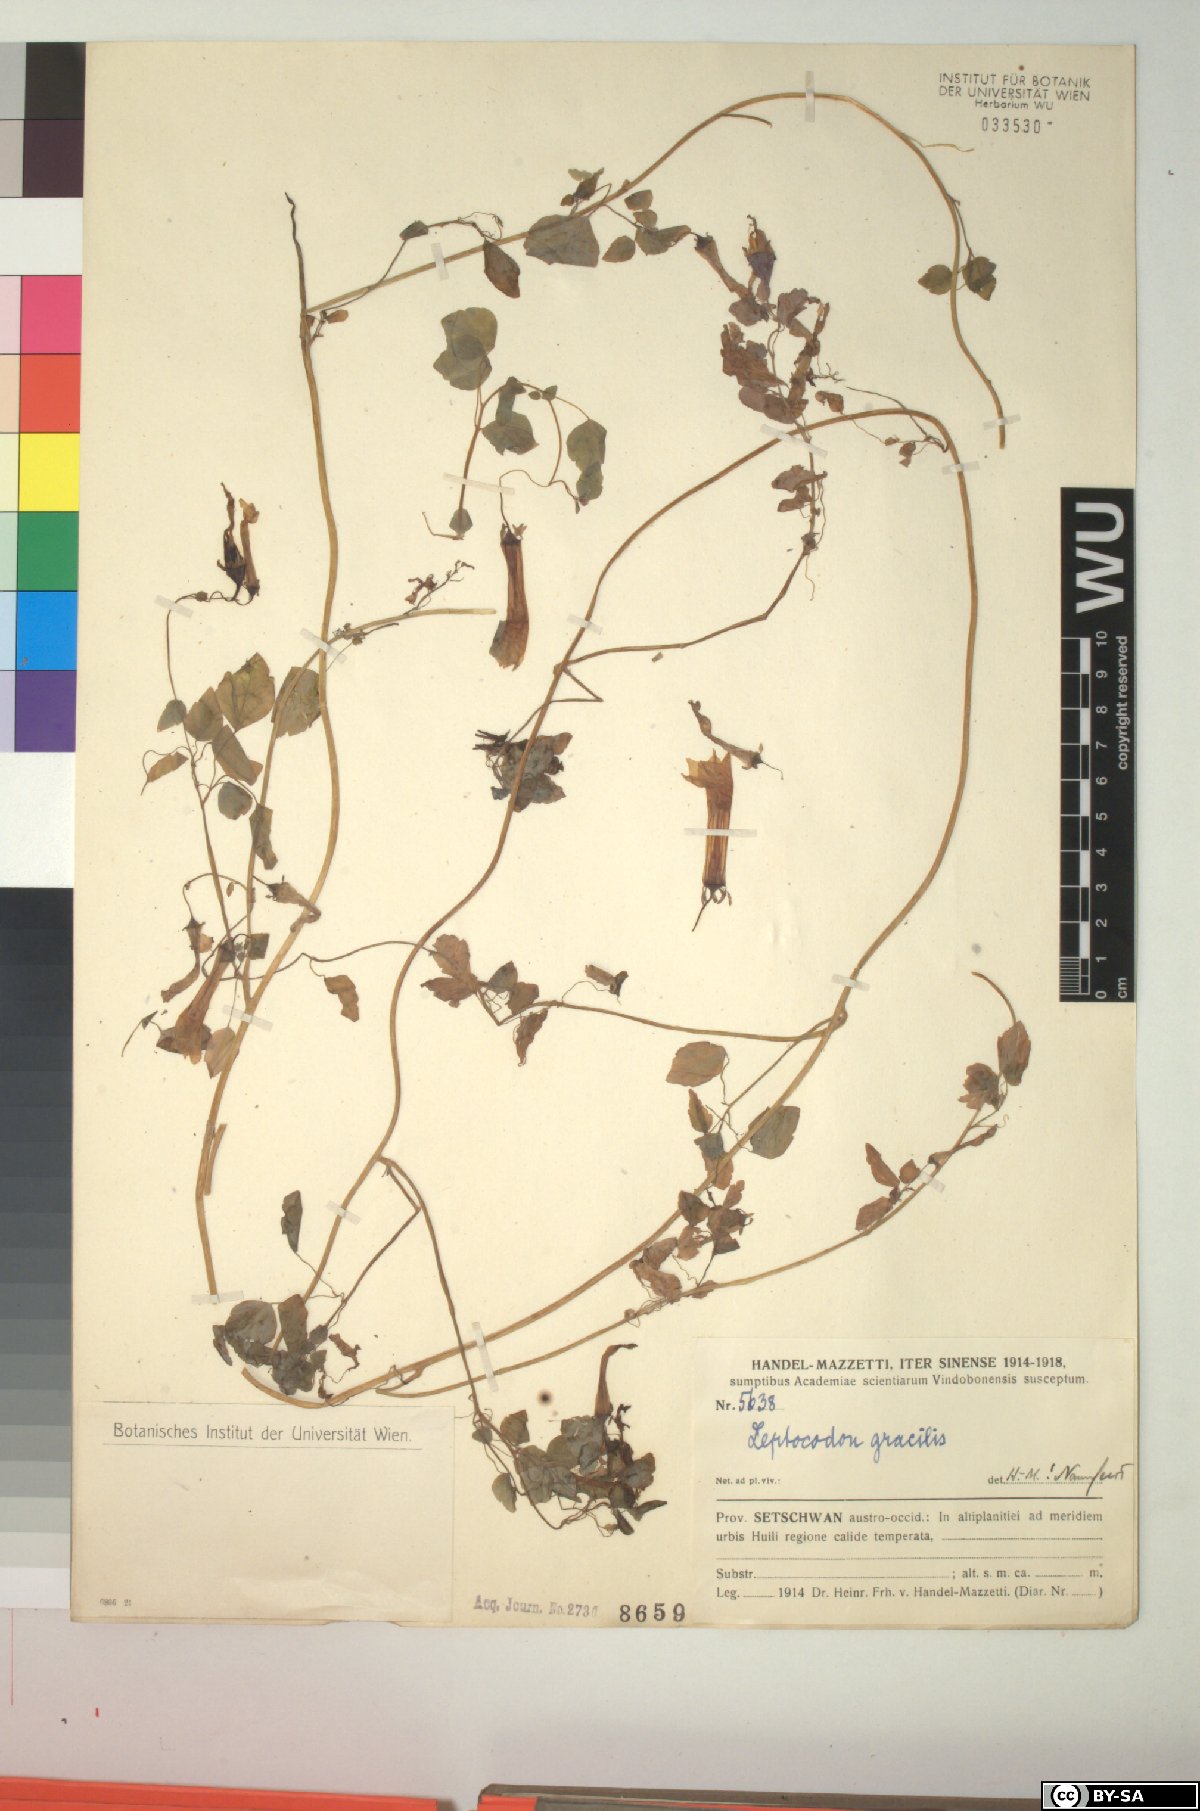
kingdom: Plantae
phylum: Tracheophyta
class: Magnoliopsida
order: Asterales
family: Campanulaceae
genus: Codonopsis
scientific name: Codonopsis gracilis
